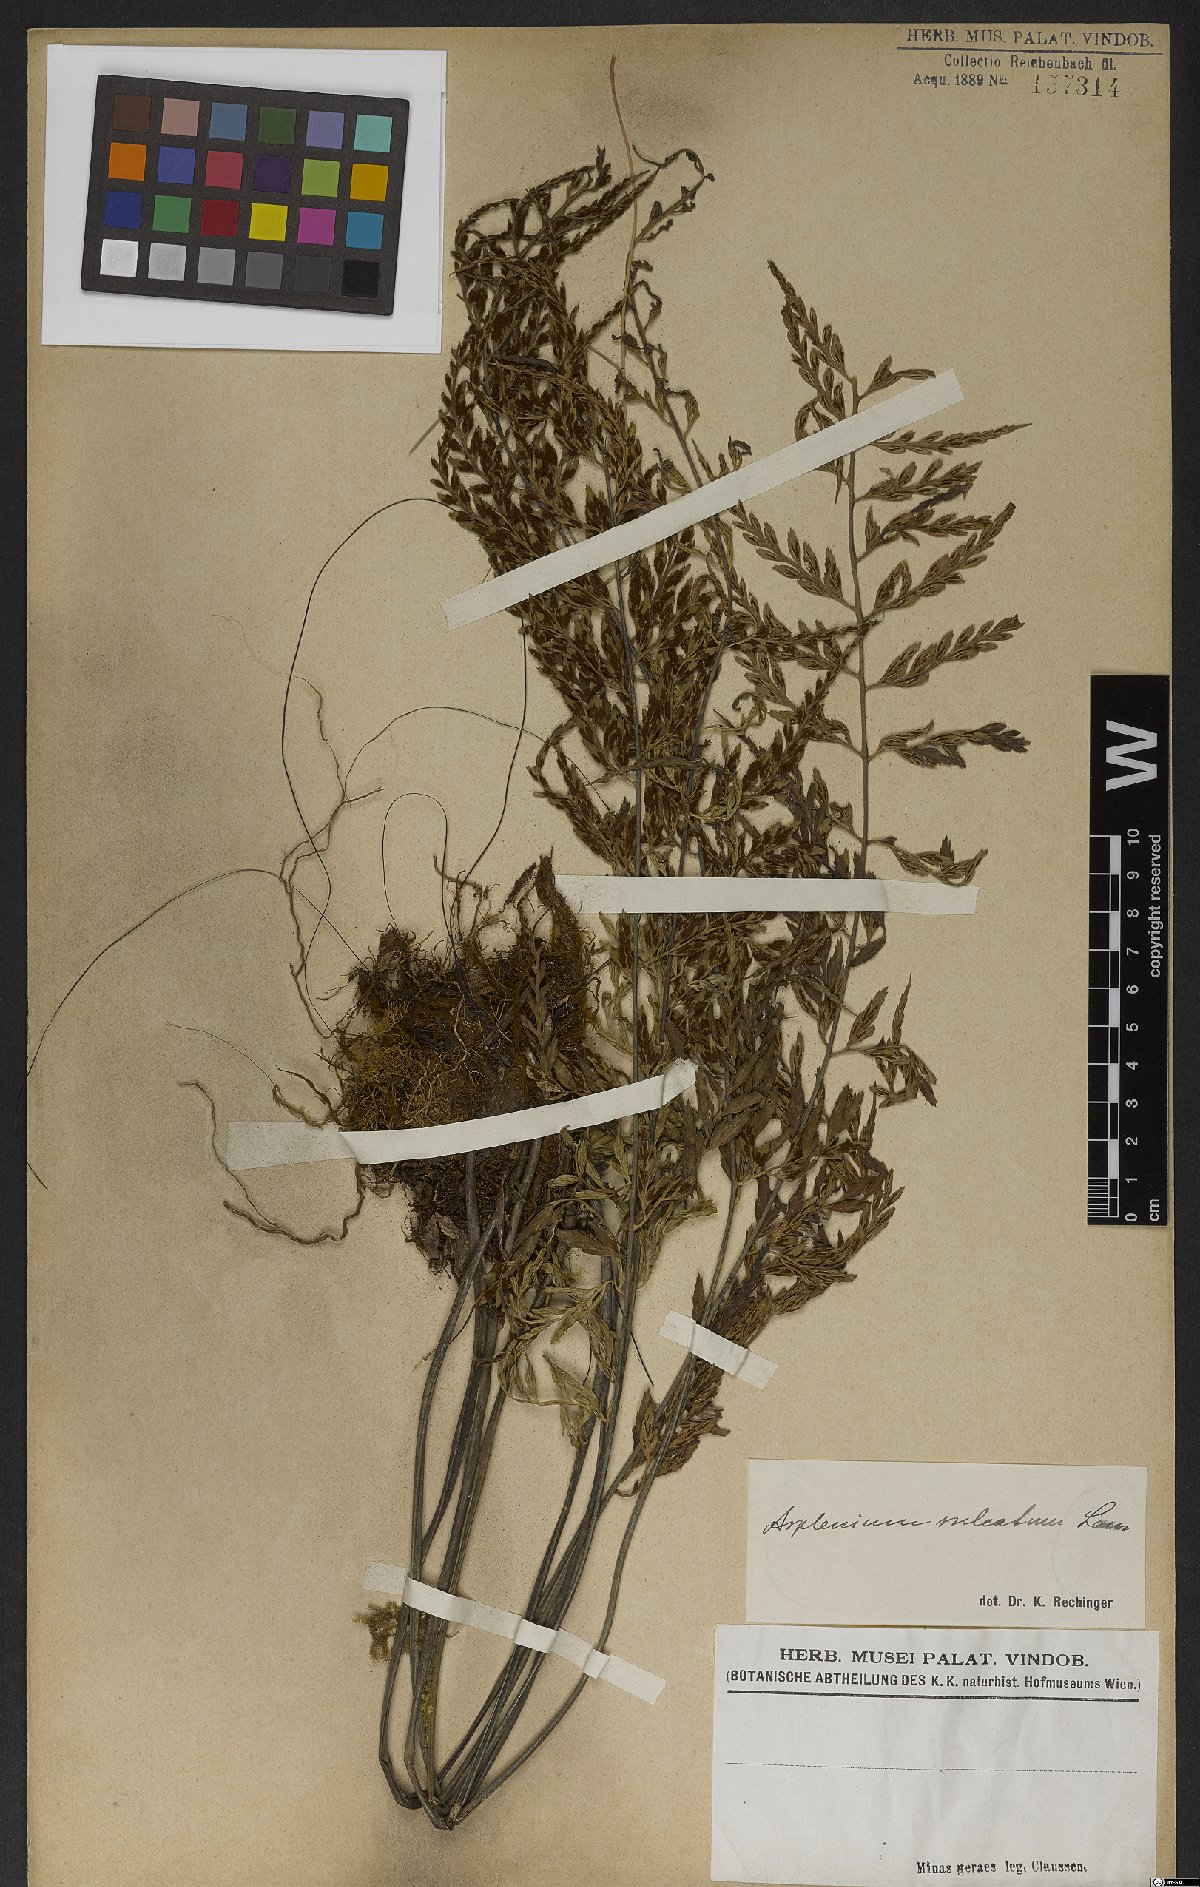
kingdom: Plantae
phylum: Tracheophyta
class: Polypodiopsida
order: Polypodiales
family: Aspleniaceae
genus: Asplenium
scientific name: Asplenium sulcatum
